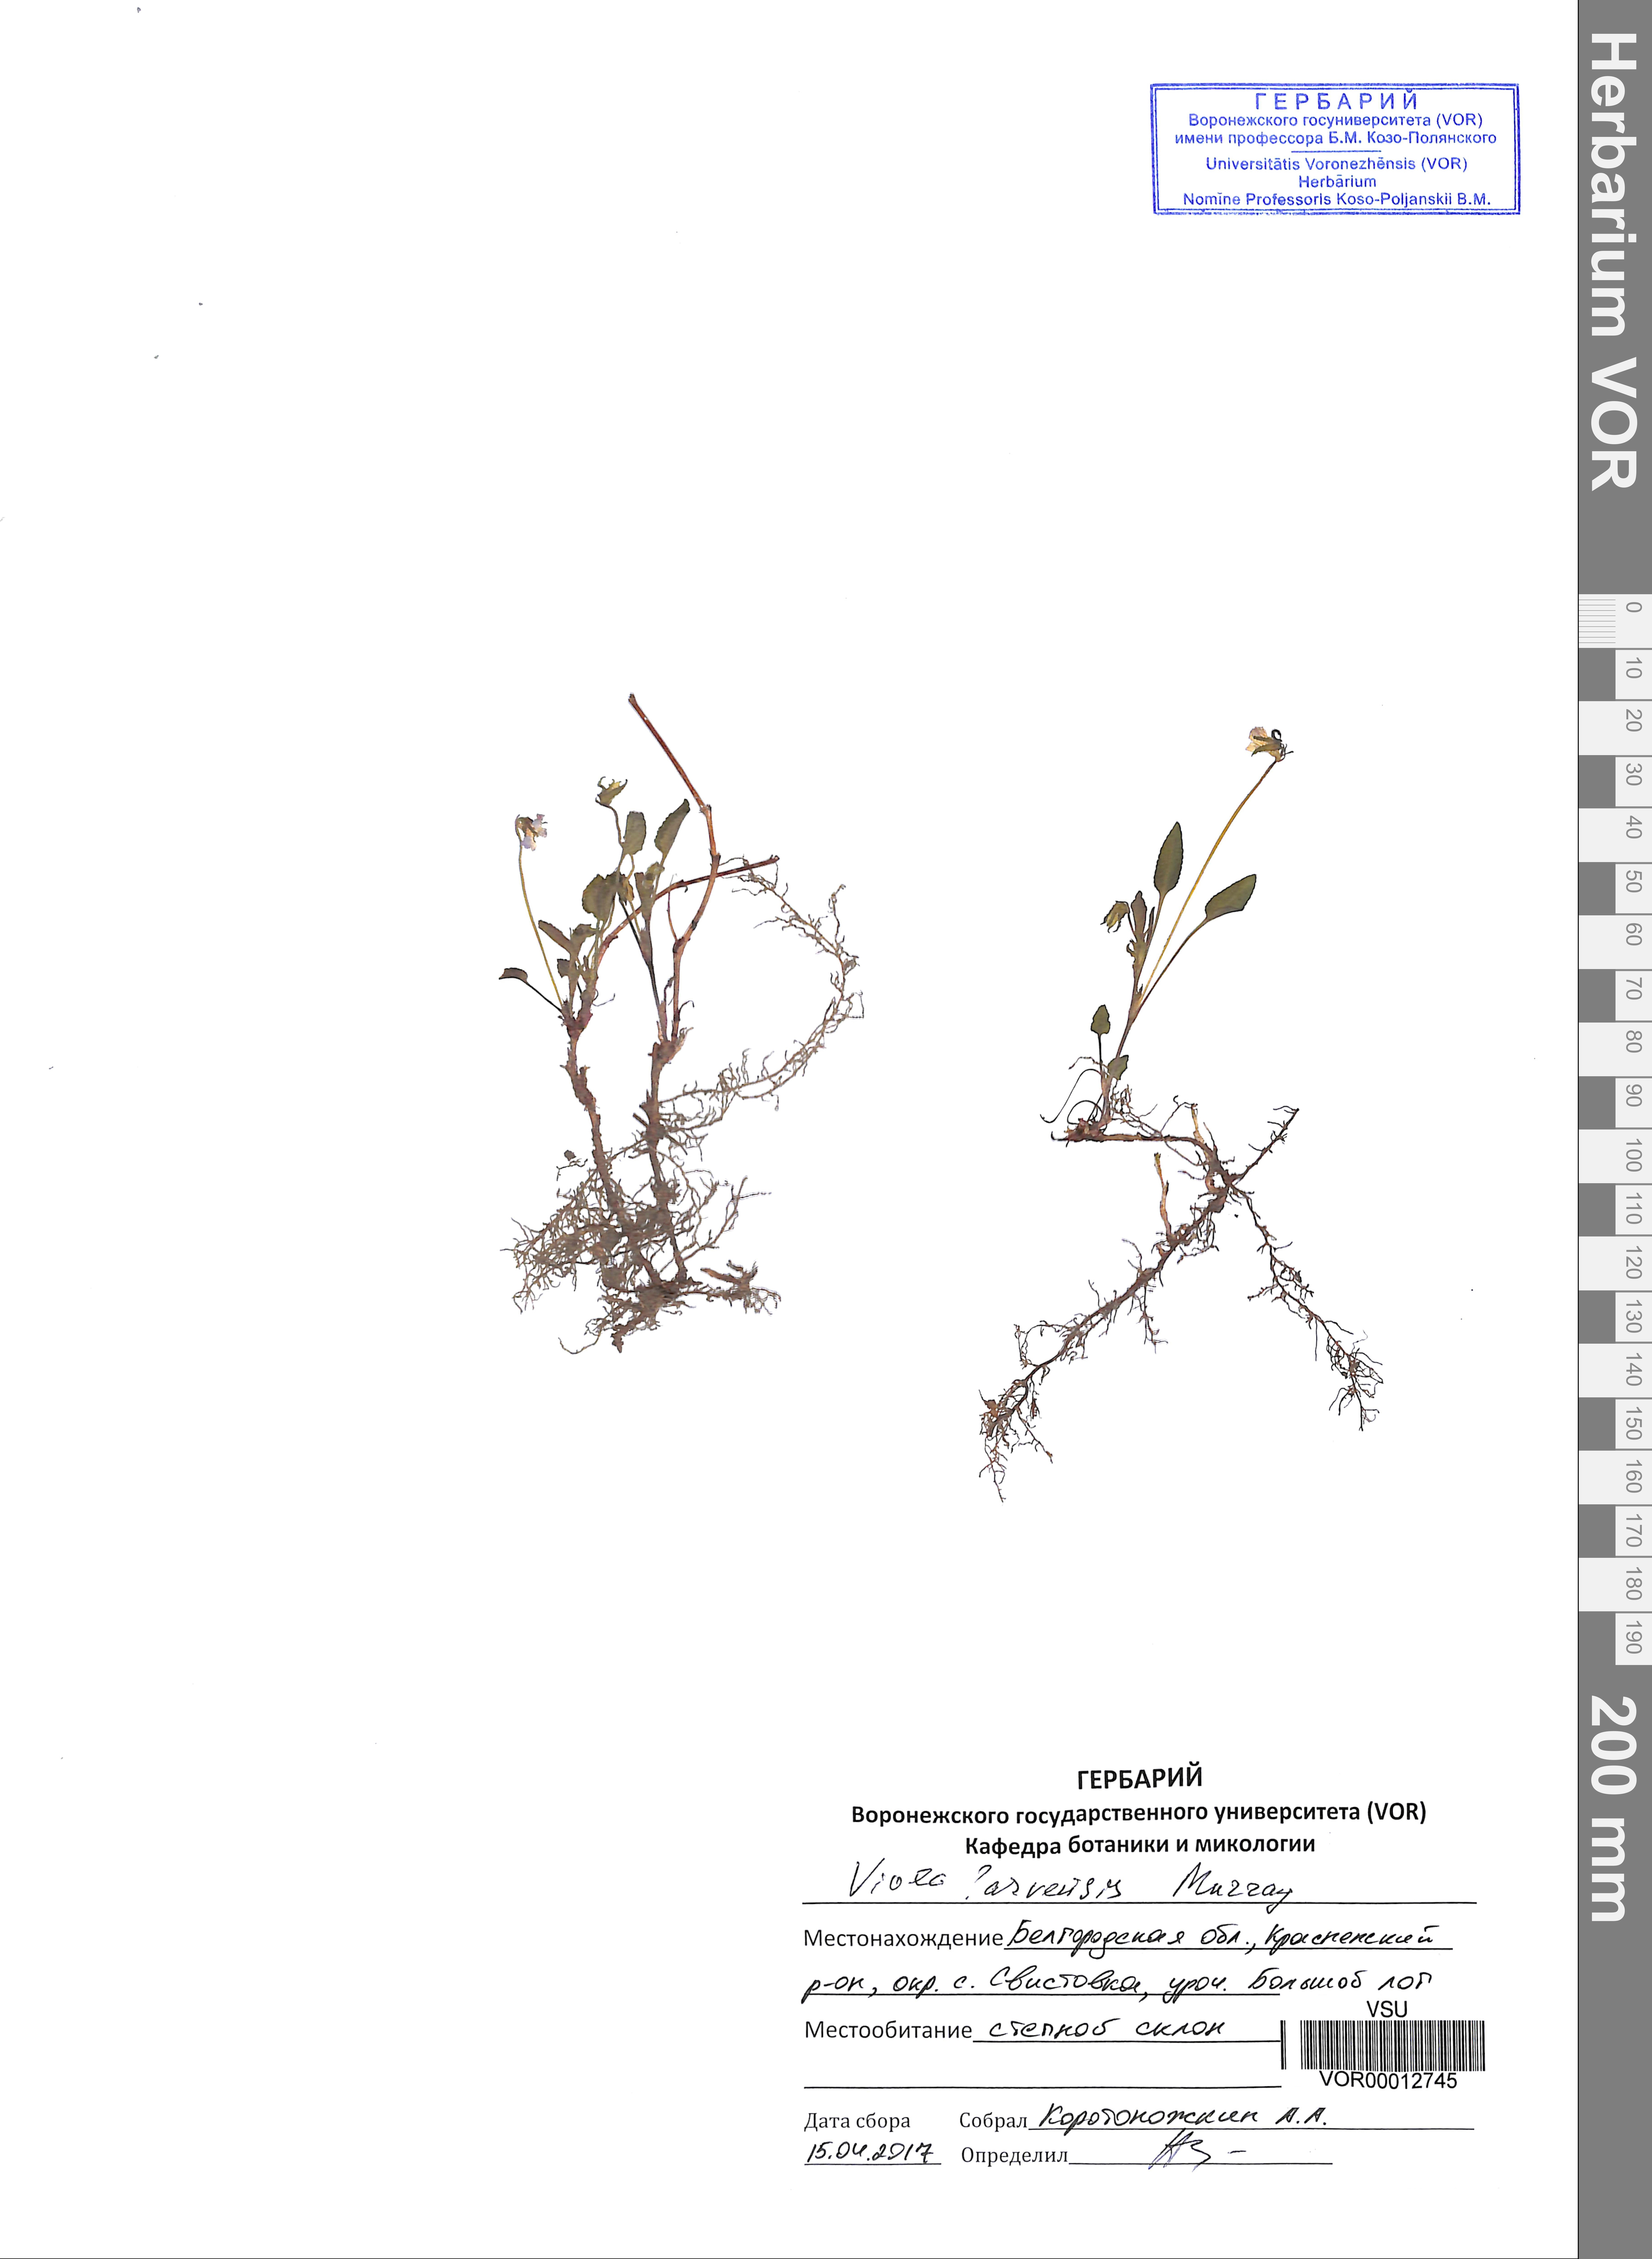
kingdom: Plantae
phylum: Tracheophyta
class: Magnoliopsida
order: Malpighiales
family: Violaceae
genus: Viola
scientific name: Viola arvensis
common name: Field pansy
